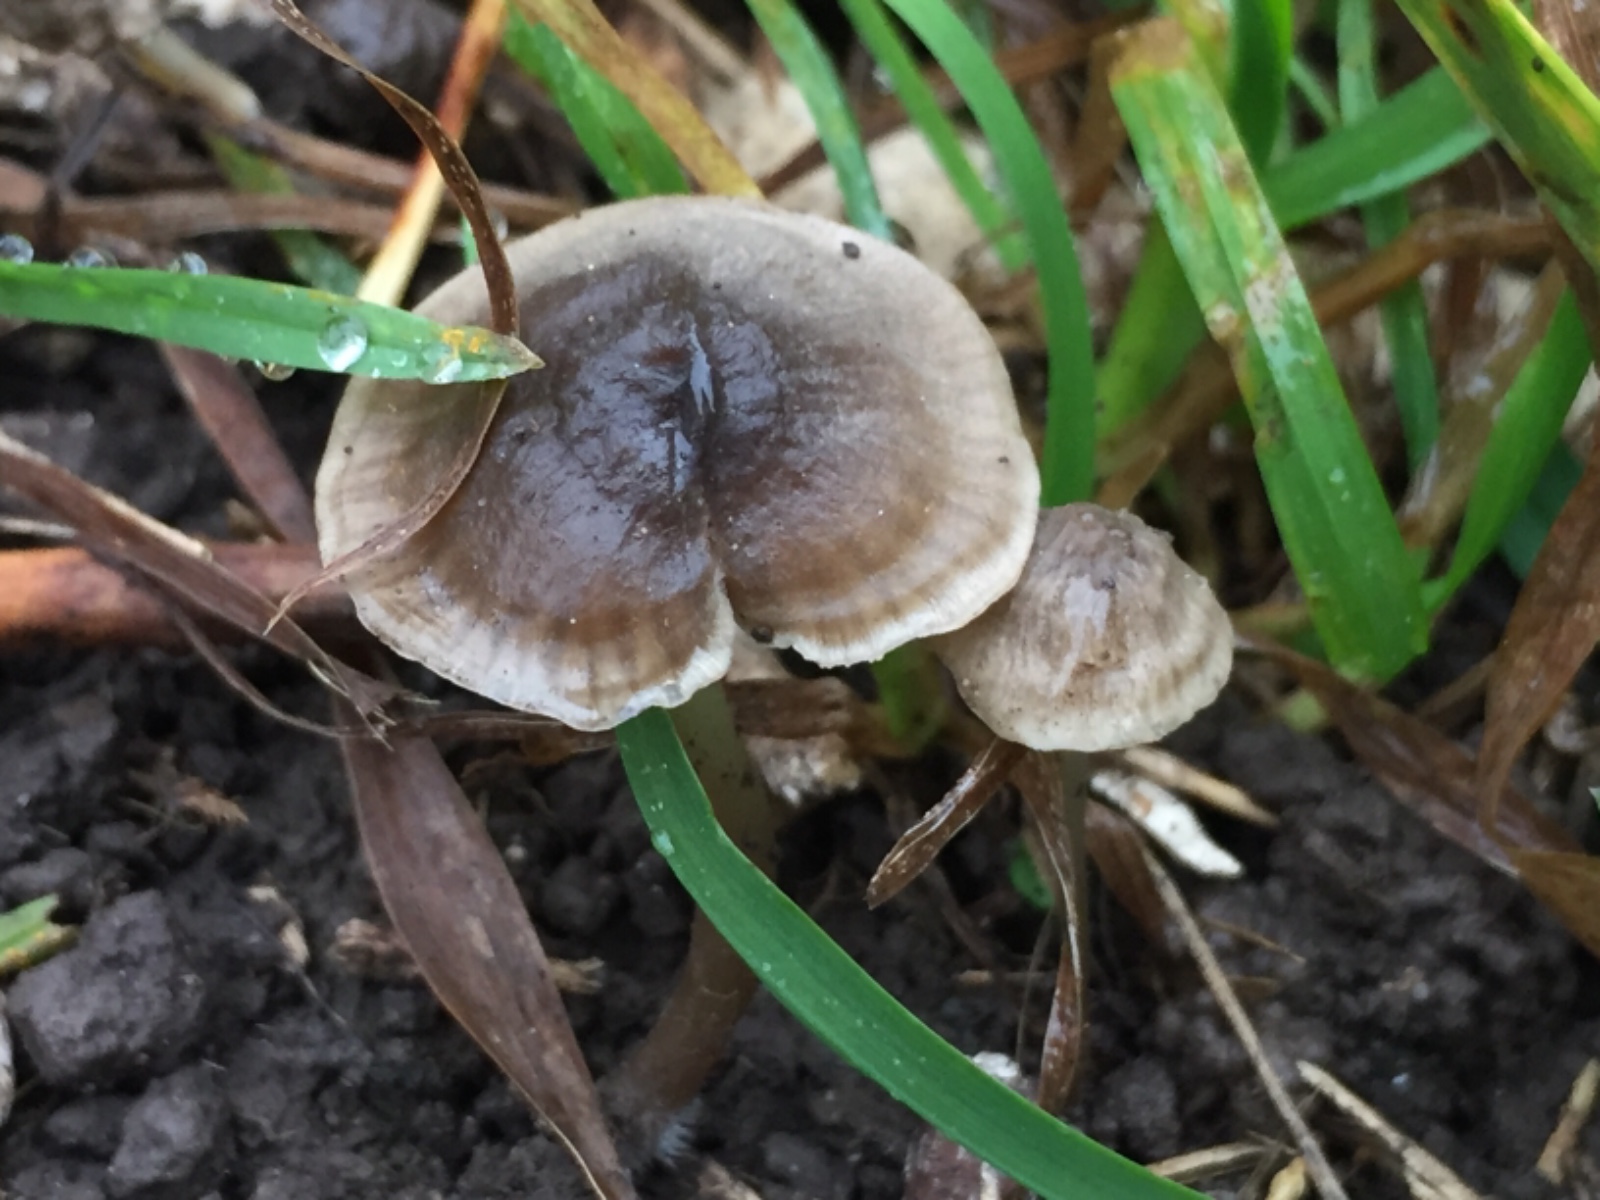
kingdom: Fungi
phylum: Basidiomycota
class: Agaricomycetes
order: Agaricales
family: Porotheleaceae
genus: Phloeomana
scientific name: Phloeomana atropapillata
